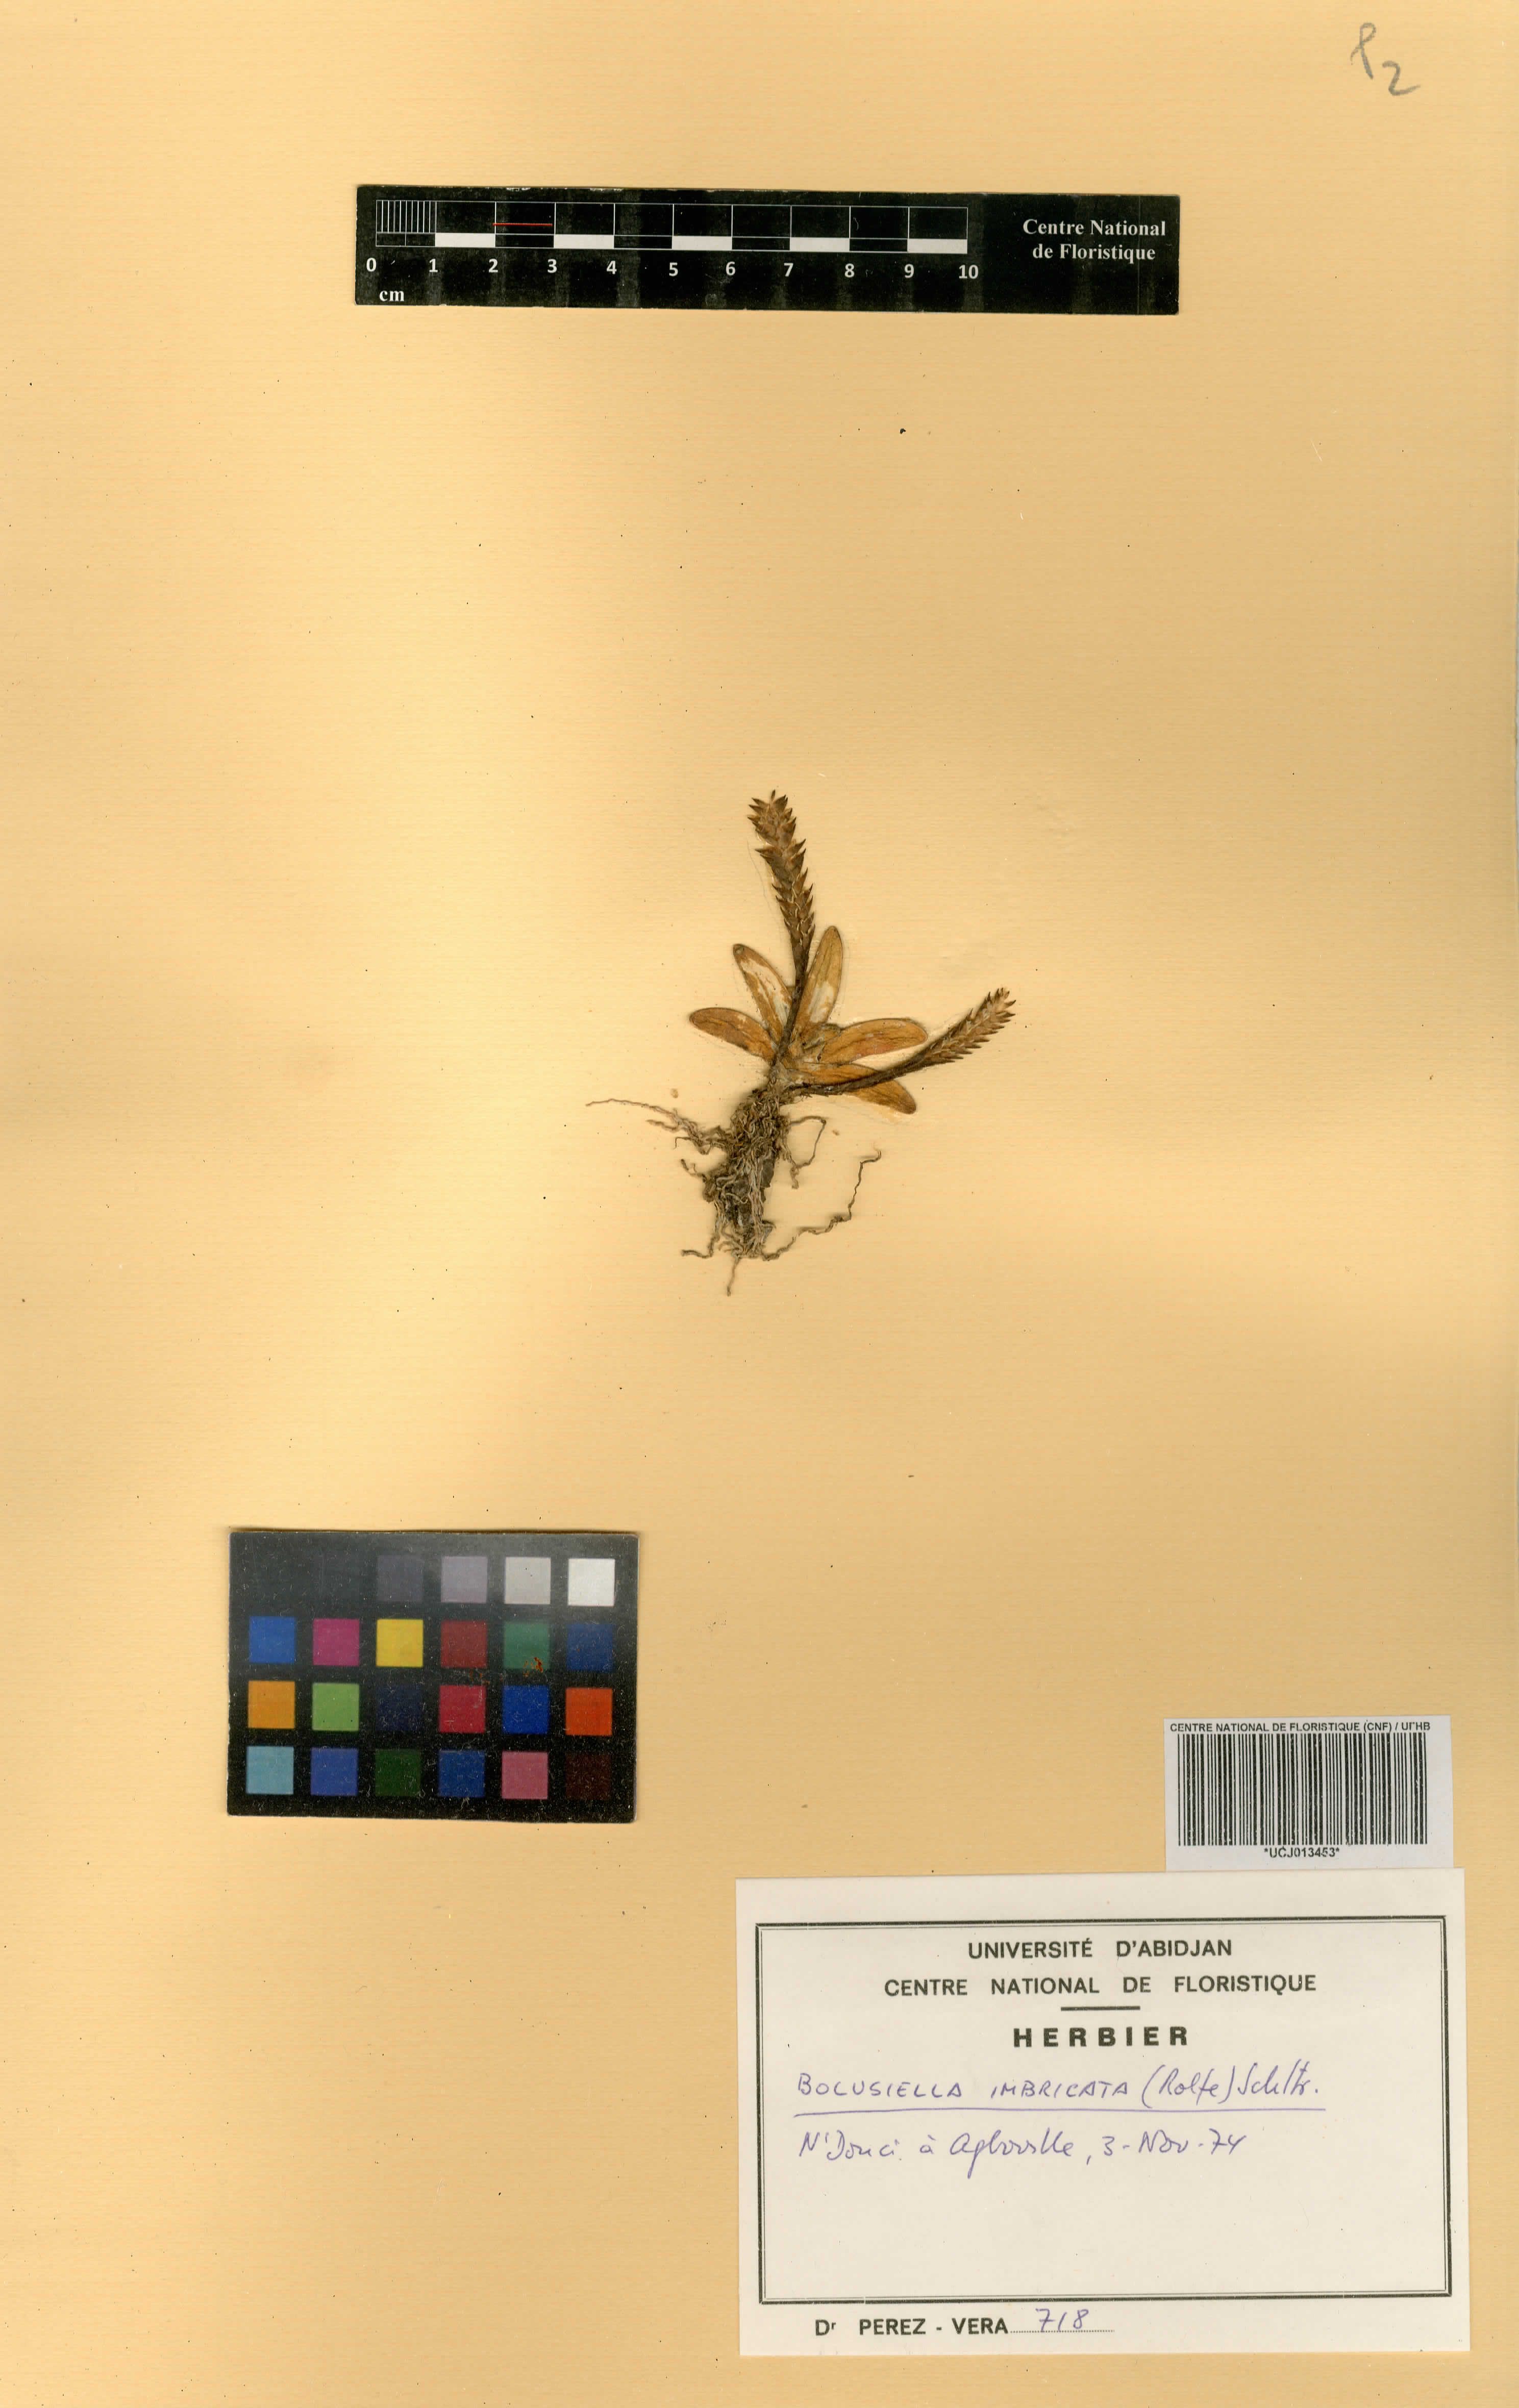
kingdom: Plantae
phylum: Tracheophyta
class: Liliopsida
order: Asparagales
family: Orchidaceae
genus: Bolusiella
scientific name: Bolusiella maudiae
